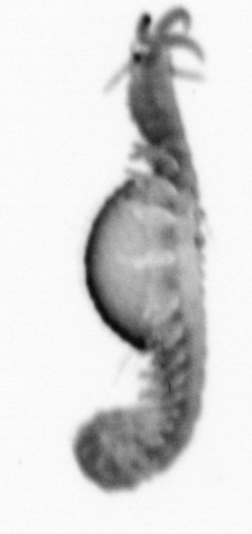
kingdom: Animalia
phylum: Annelida
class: Polychaeta
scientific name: Polychaeta
